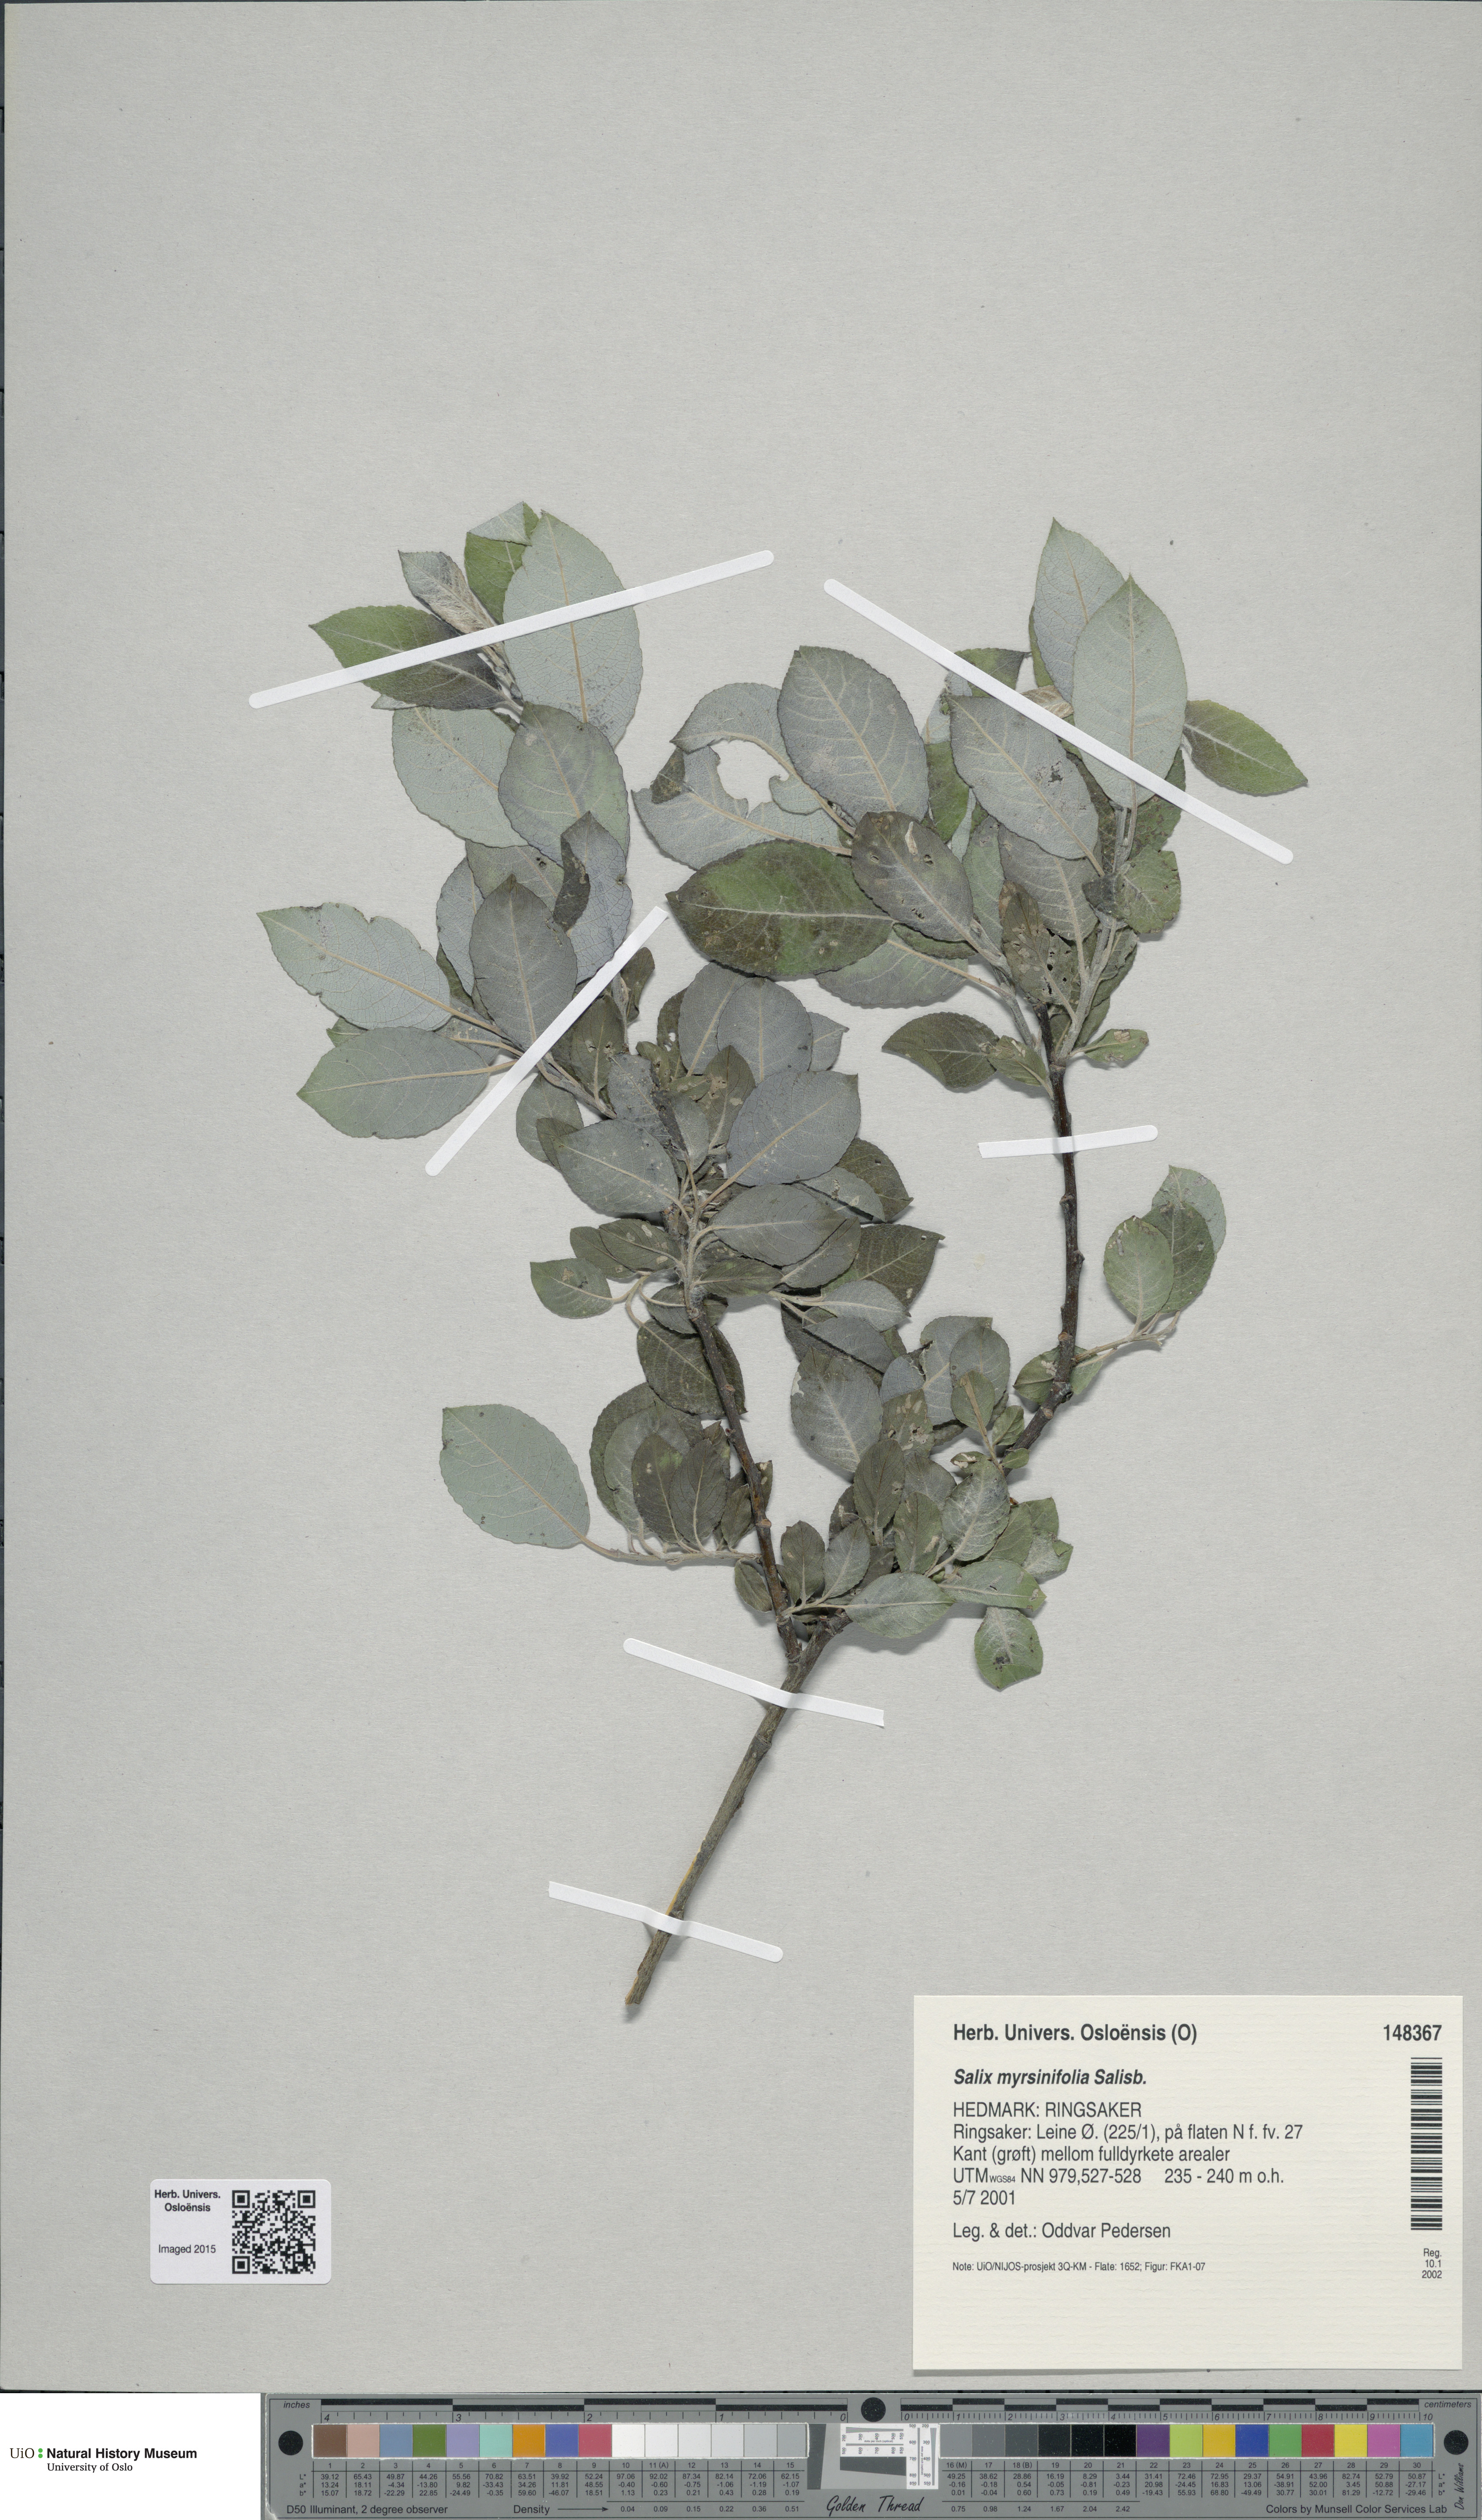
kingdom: Plantae
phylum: Tracheophyta
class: Magnoliopsida
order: Malpighiales
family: Salicaceae
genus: Salix
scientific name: Salix myrsinifolia
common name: Dark-leaved willow
